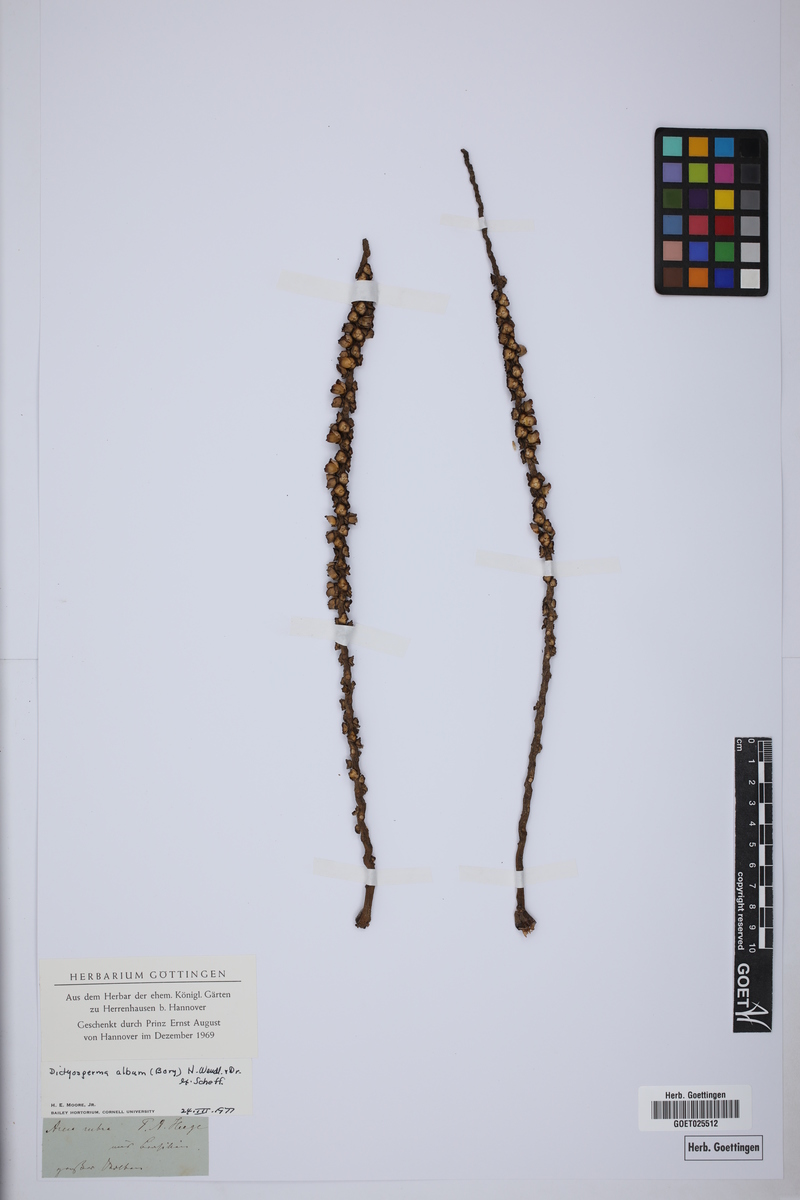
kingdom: Plantae
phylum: Tracheophyta
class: Liliopsida
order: Arecales
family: Arecaceae
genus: Dictyosperma
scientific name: Dictyosperma album
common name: Common princess palm
